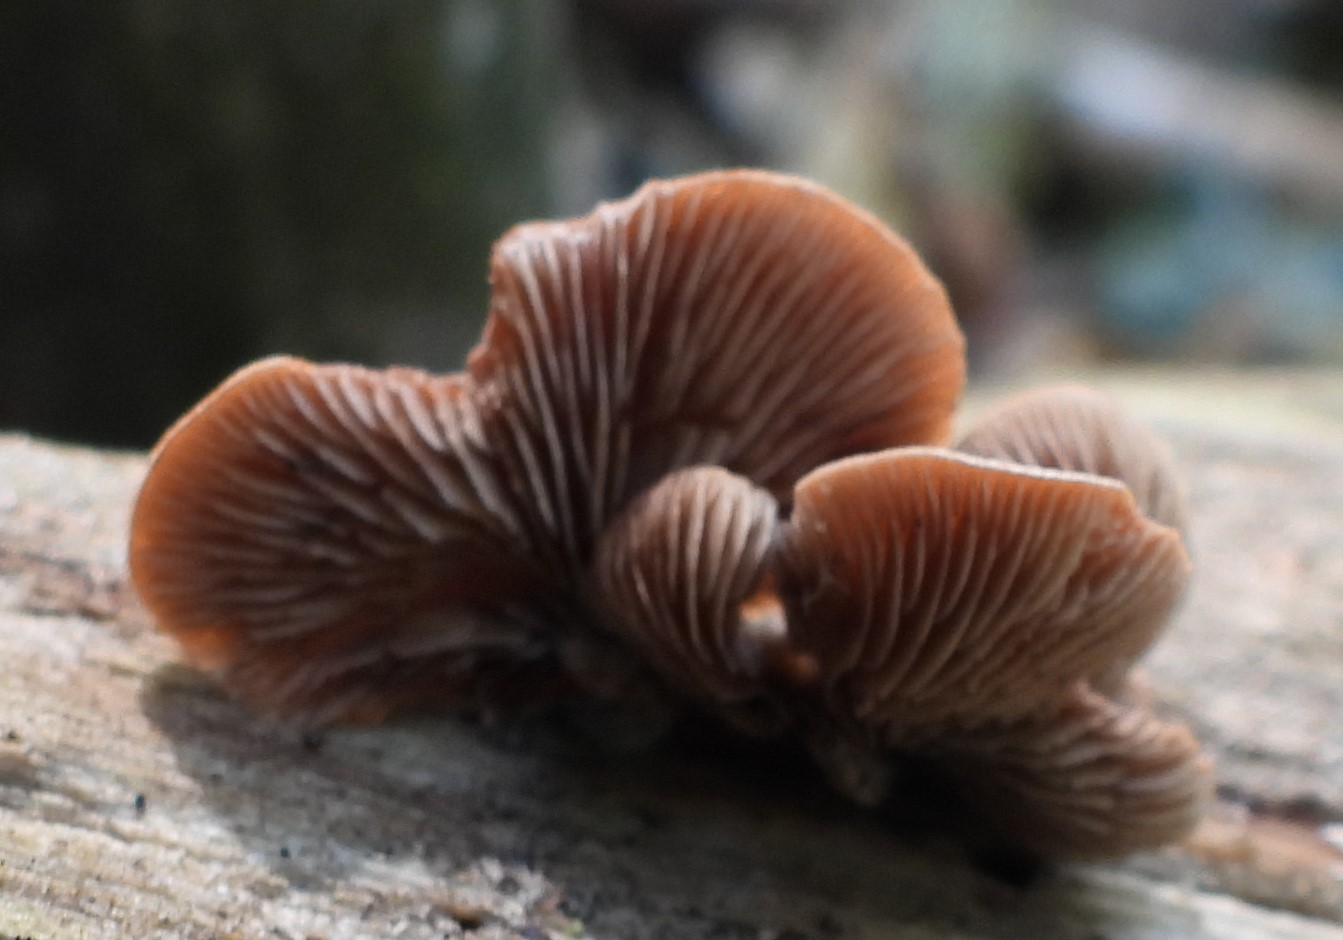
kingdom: Fungi
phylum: Basidiomycota
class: Agaricomycetes
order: Agaricales
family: Strophariaceae
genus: Deconica
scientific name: Deconica horizontalis
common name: ved-stråhat
